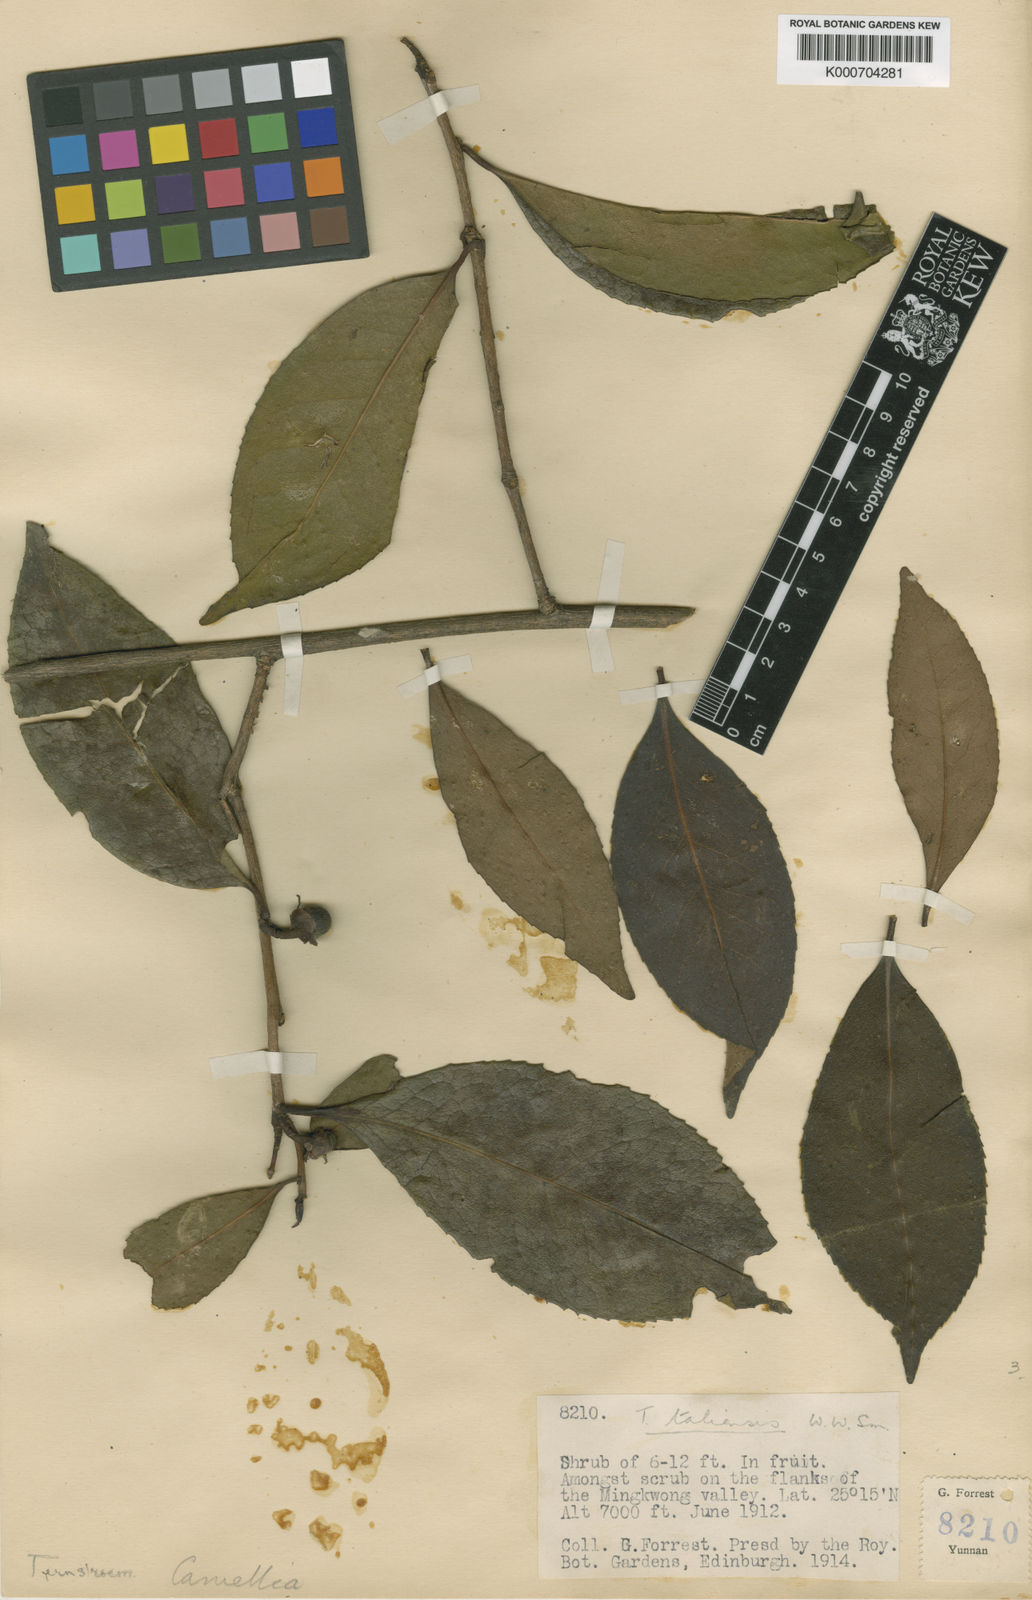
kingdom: Plantae
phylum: Tracheophyta
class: Magnoliopsida
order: Ericales
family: Theaceae
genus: Camellia
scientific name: Camellia taliensis
